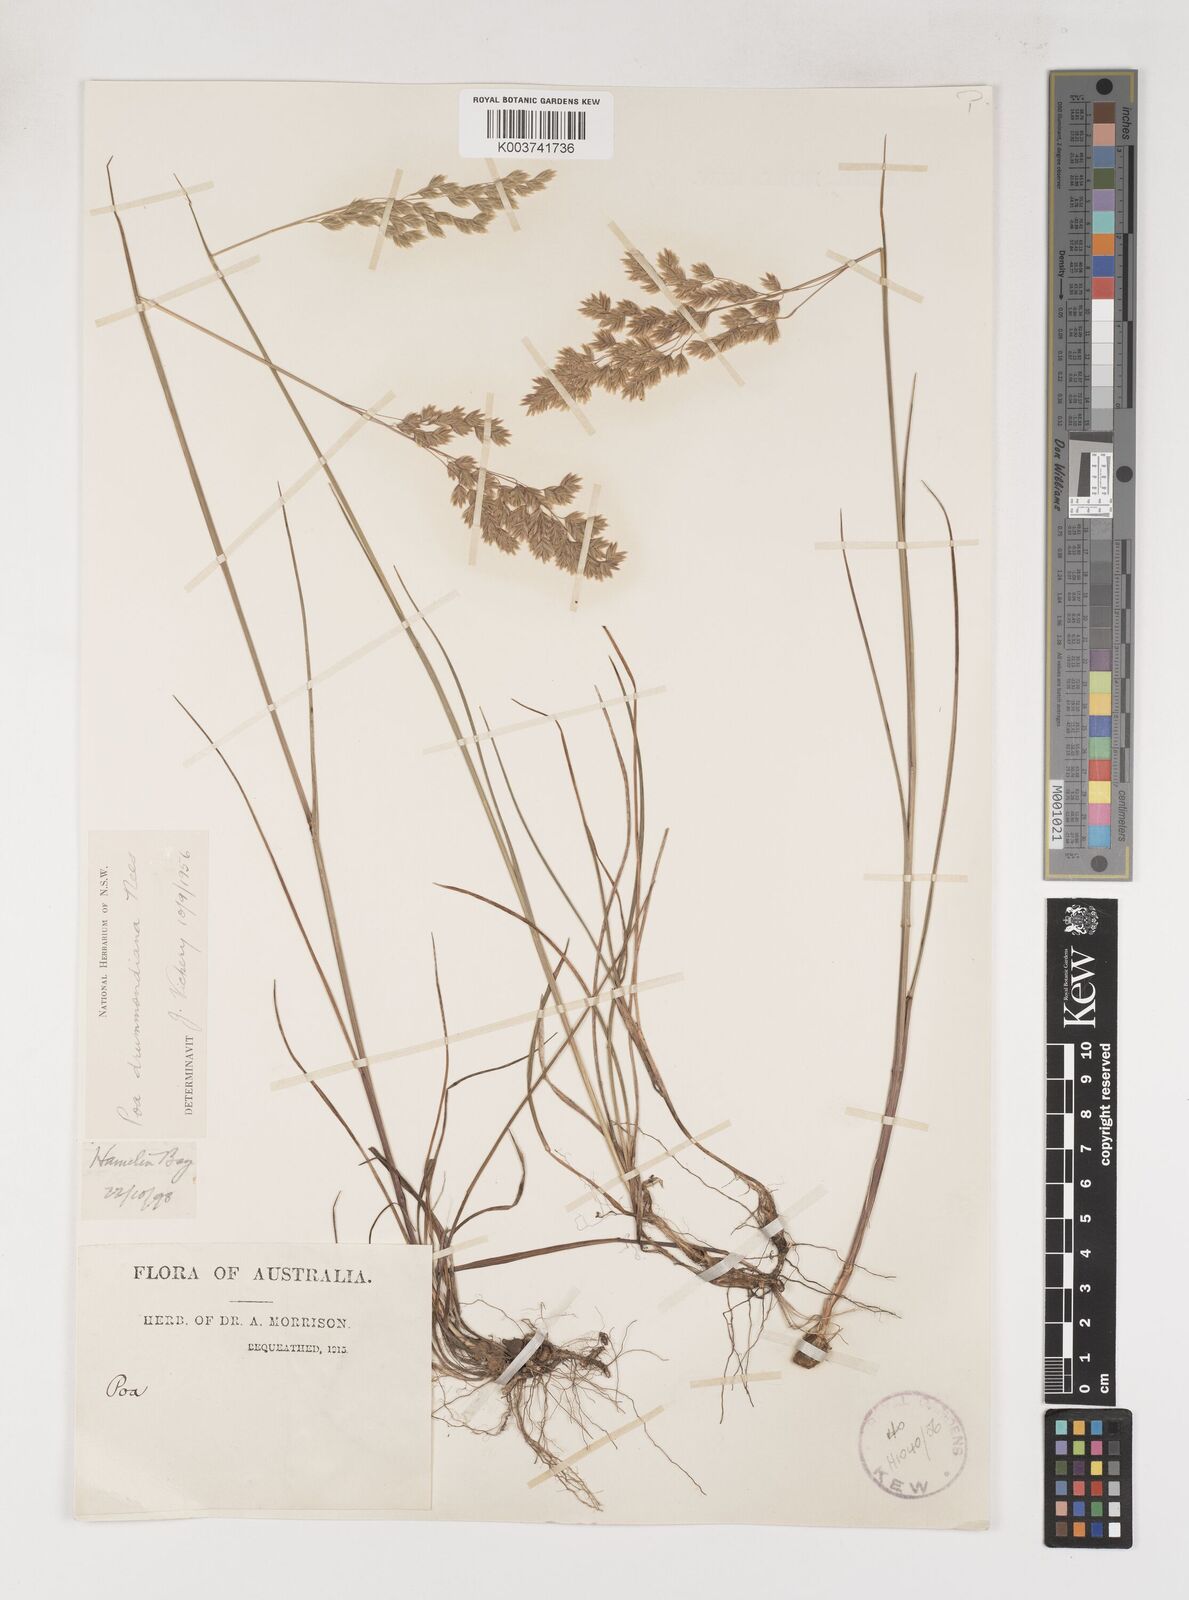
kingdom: Plantae
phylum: Tracheophyta
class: Liliopsida
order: Poales
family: Poaceae
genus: Poa
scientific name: Poa drummondiana
